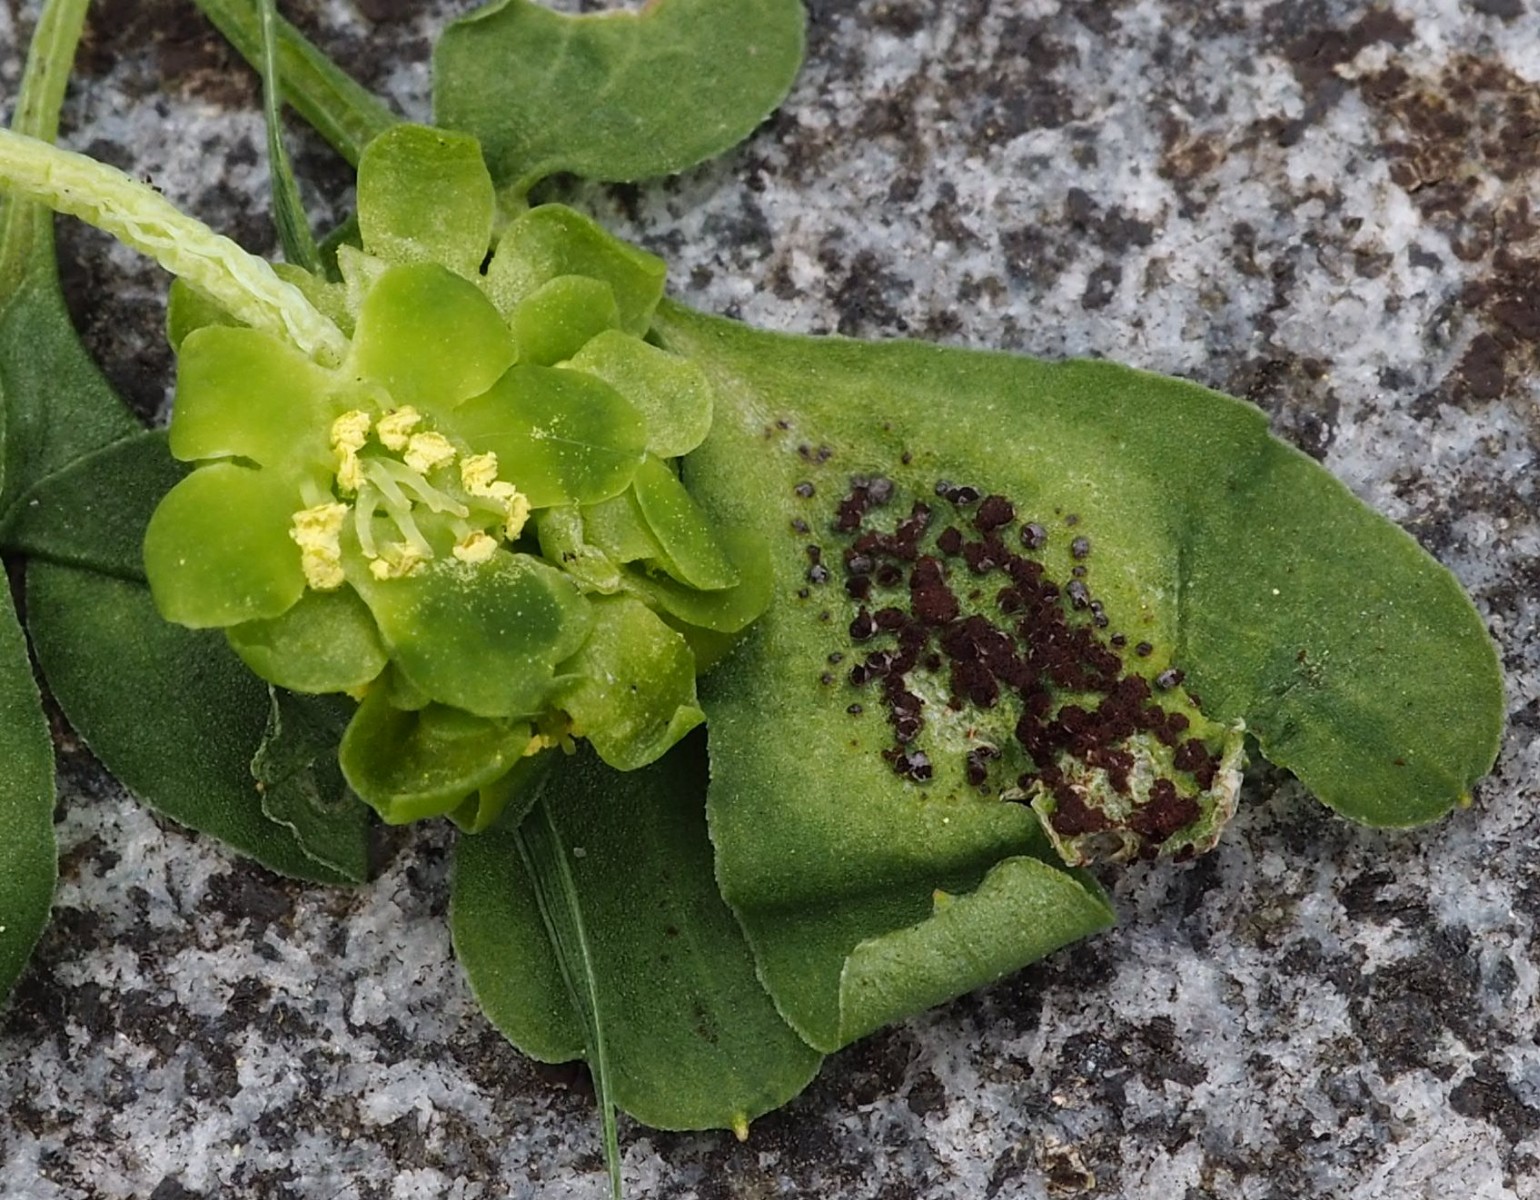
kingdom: Fungi
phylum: Basidiomycota
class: Pucciniomycetes
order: Pucciniales
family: Pucciniaceae
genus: Puccinia
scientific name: Puccinia adoxae
